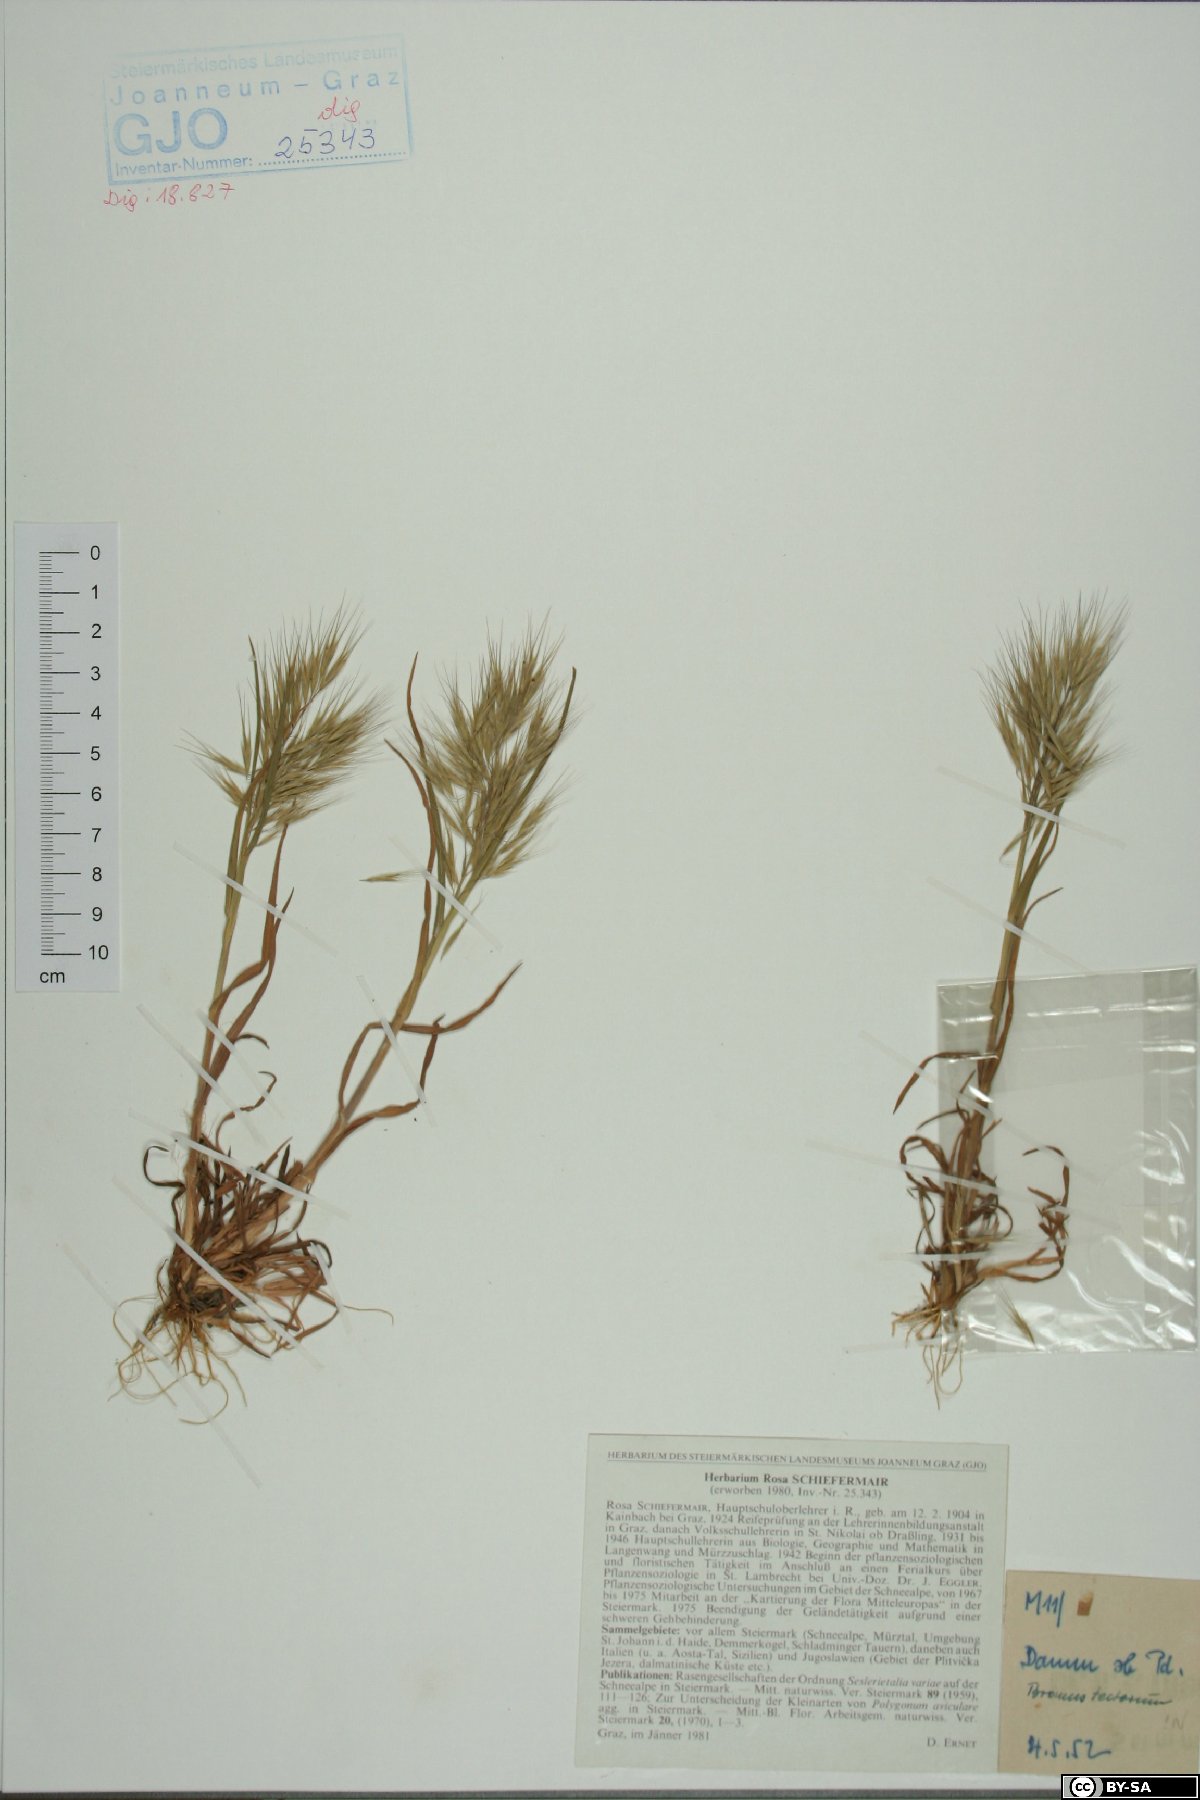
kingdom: Plantae
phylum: Tracheophyta
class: Liliopsida
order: Poales
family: Poaceae
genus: Bromus
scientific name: Bromus tectorum
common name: Cheatgrass
